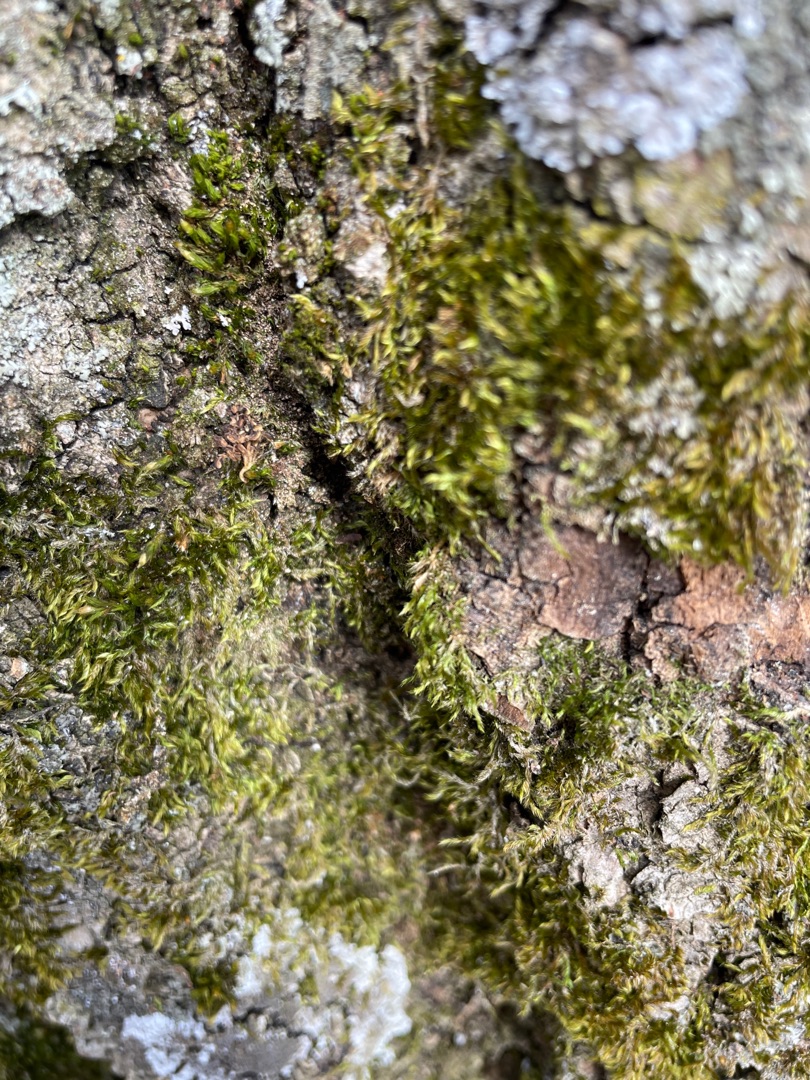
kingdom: Plantae
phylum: Bryophyta
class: Bryopsida
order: Hypnales
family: Hypnaceae
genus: Hypnum
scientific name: Hypnum
